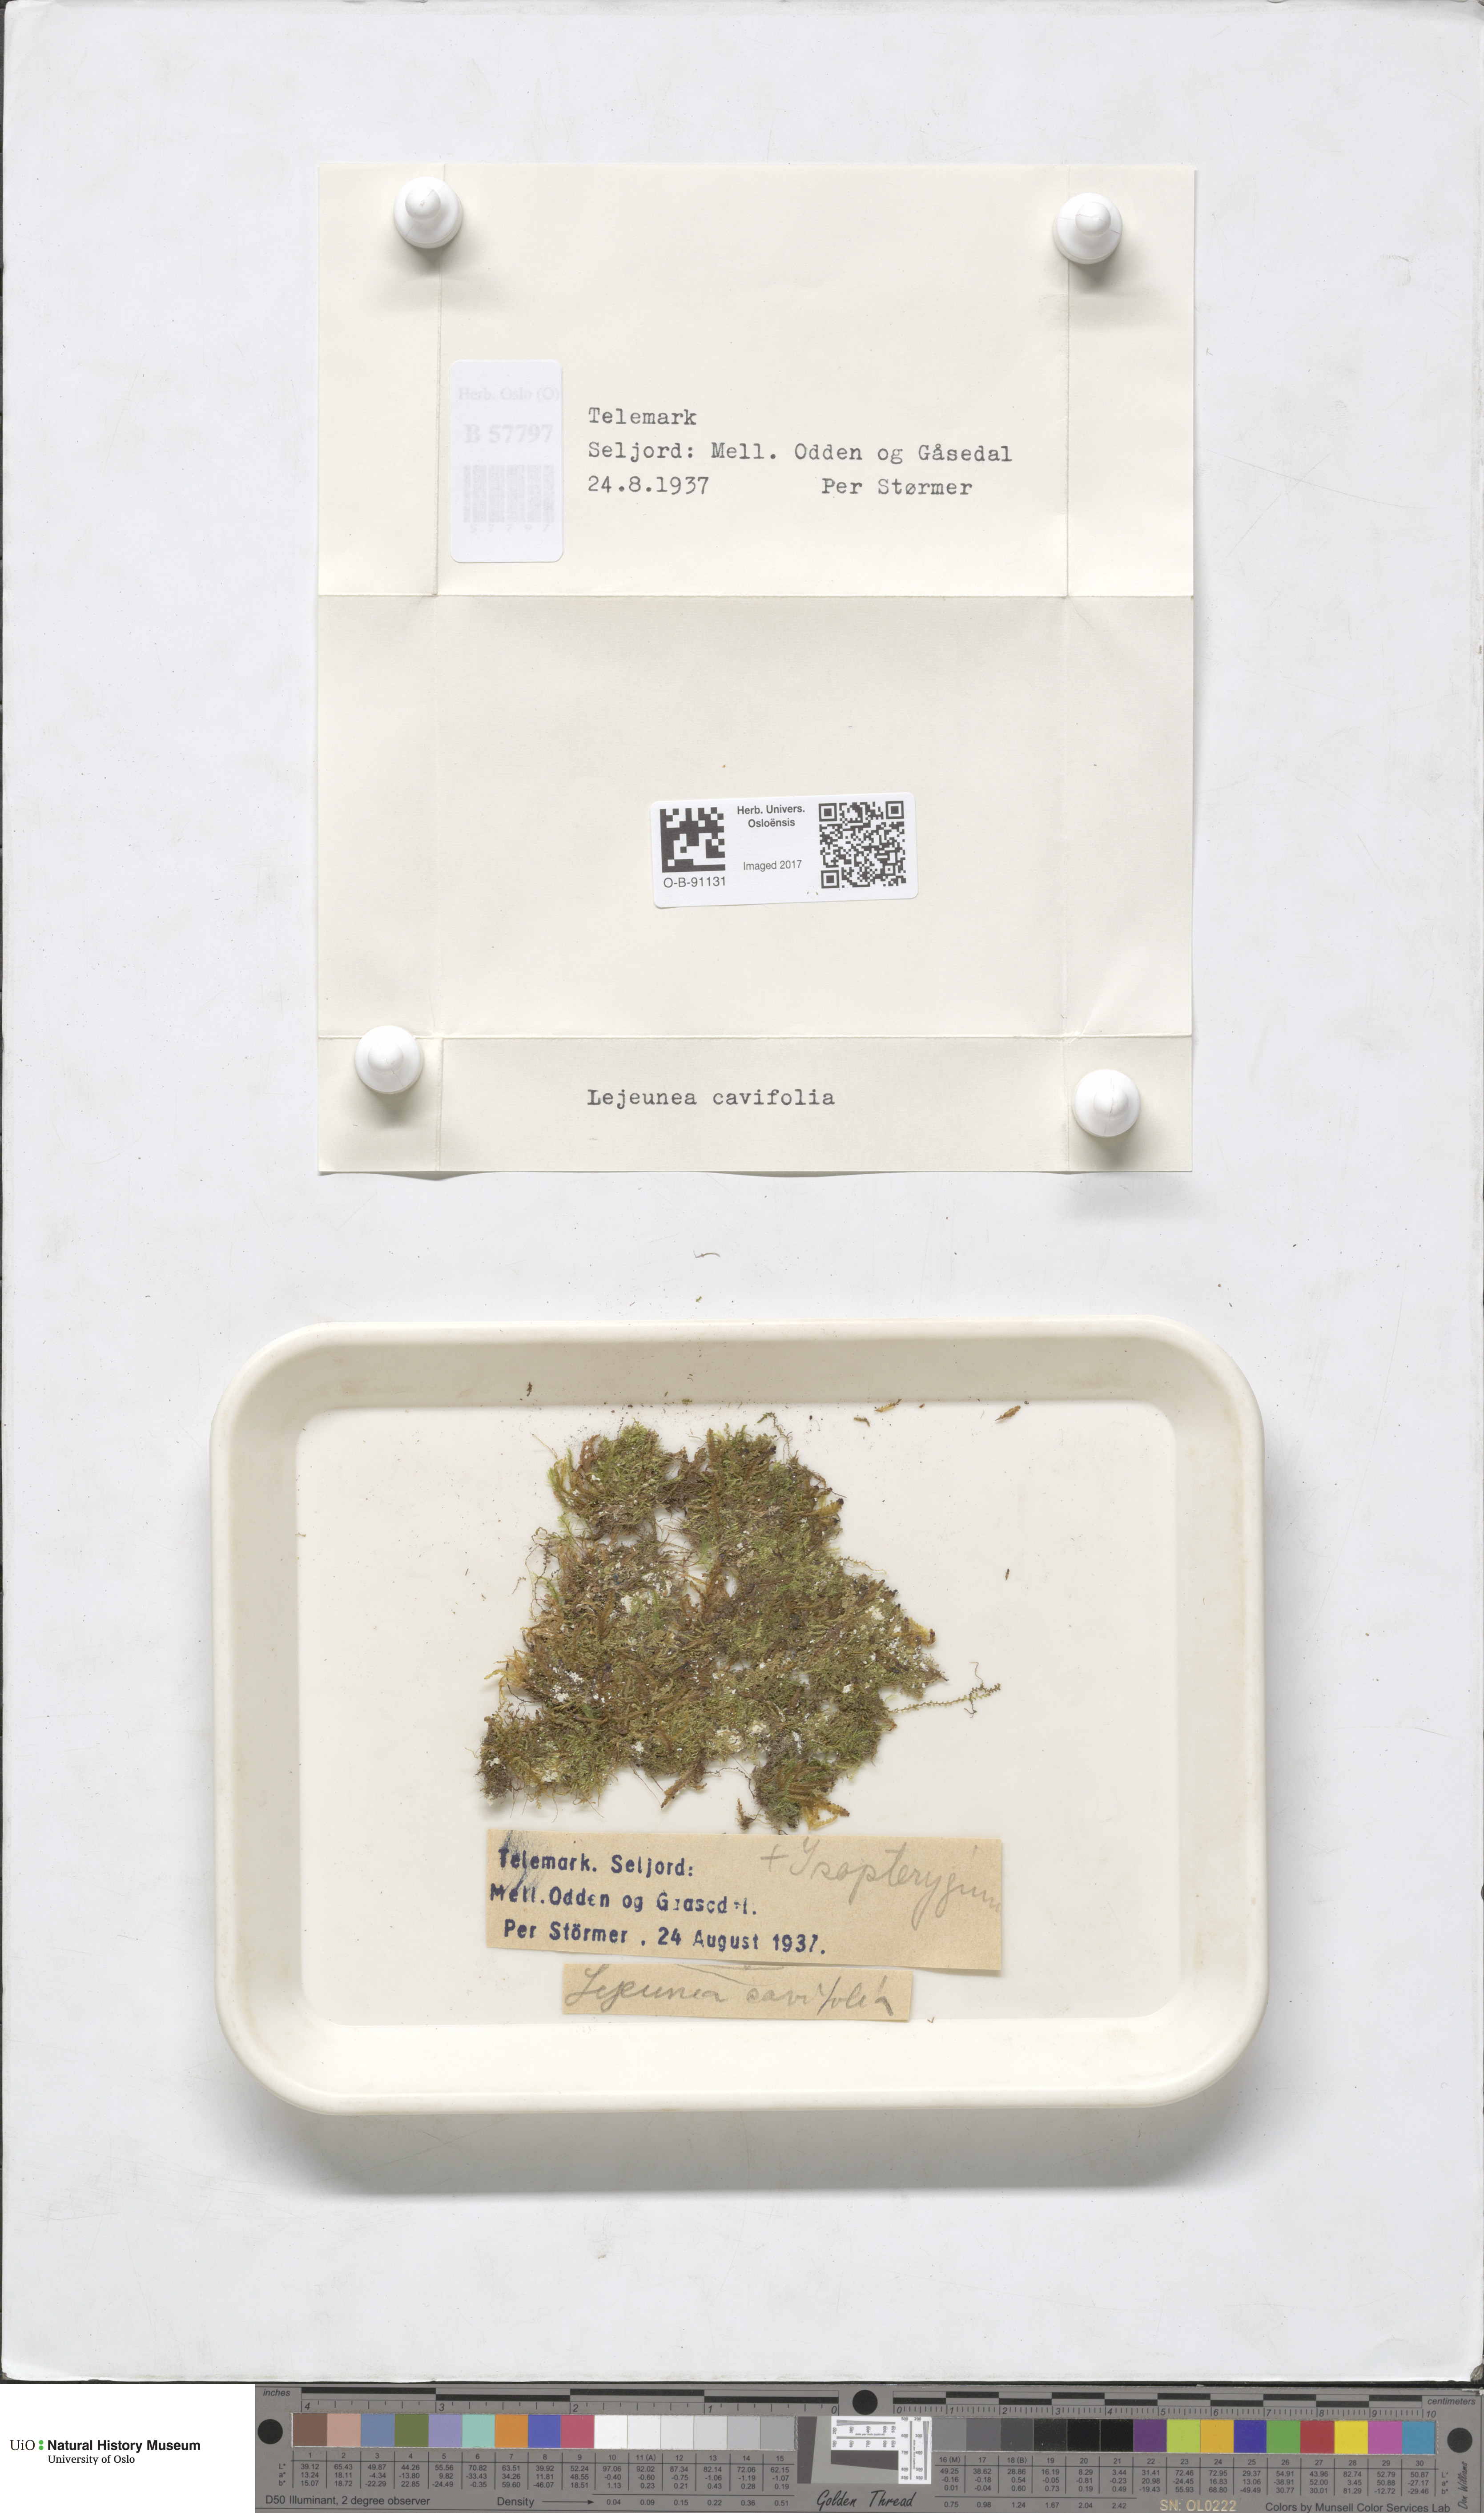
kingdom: Plantae
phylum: Marchantiophyta
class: Jungermanniopsida
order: Porellales
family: Lejeuneaceae
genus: Lejeunea
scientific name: Lejeunea cavifolia
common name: Least pouncewort
